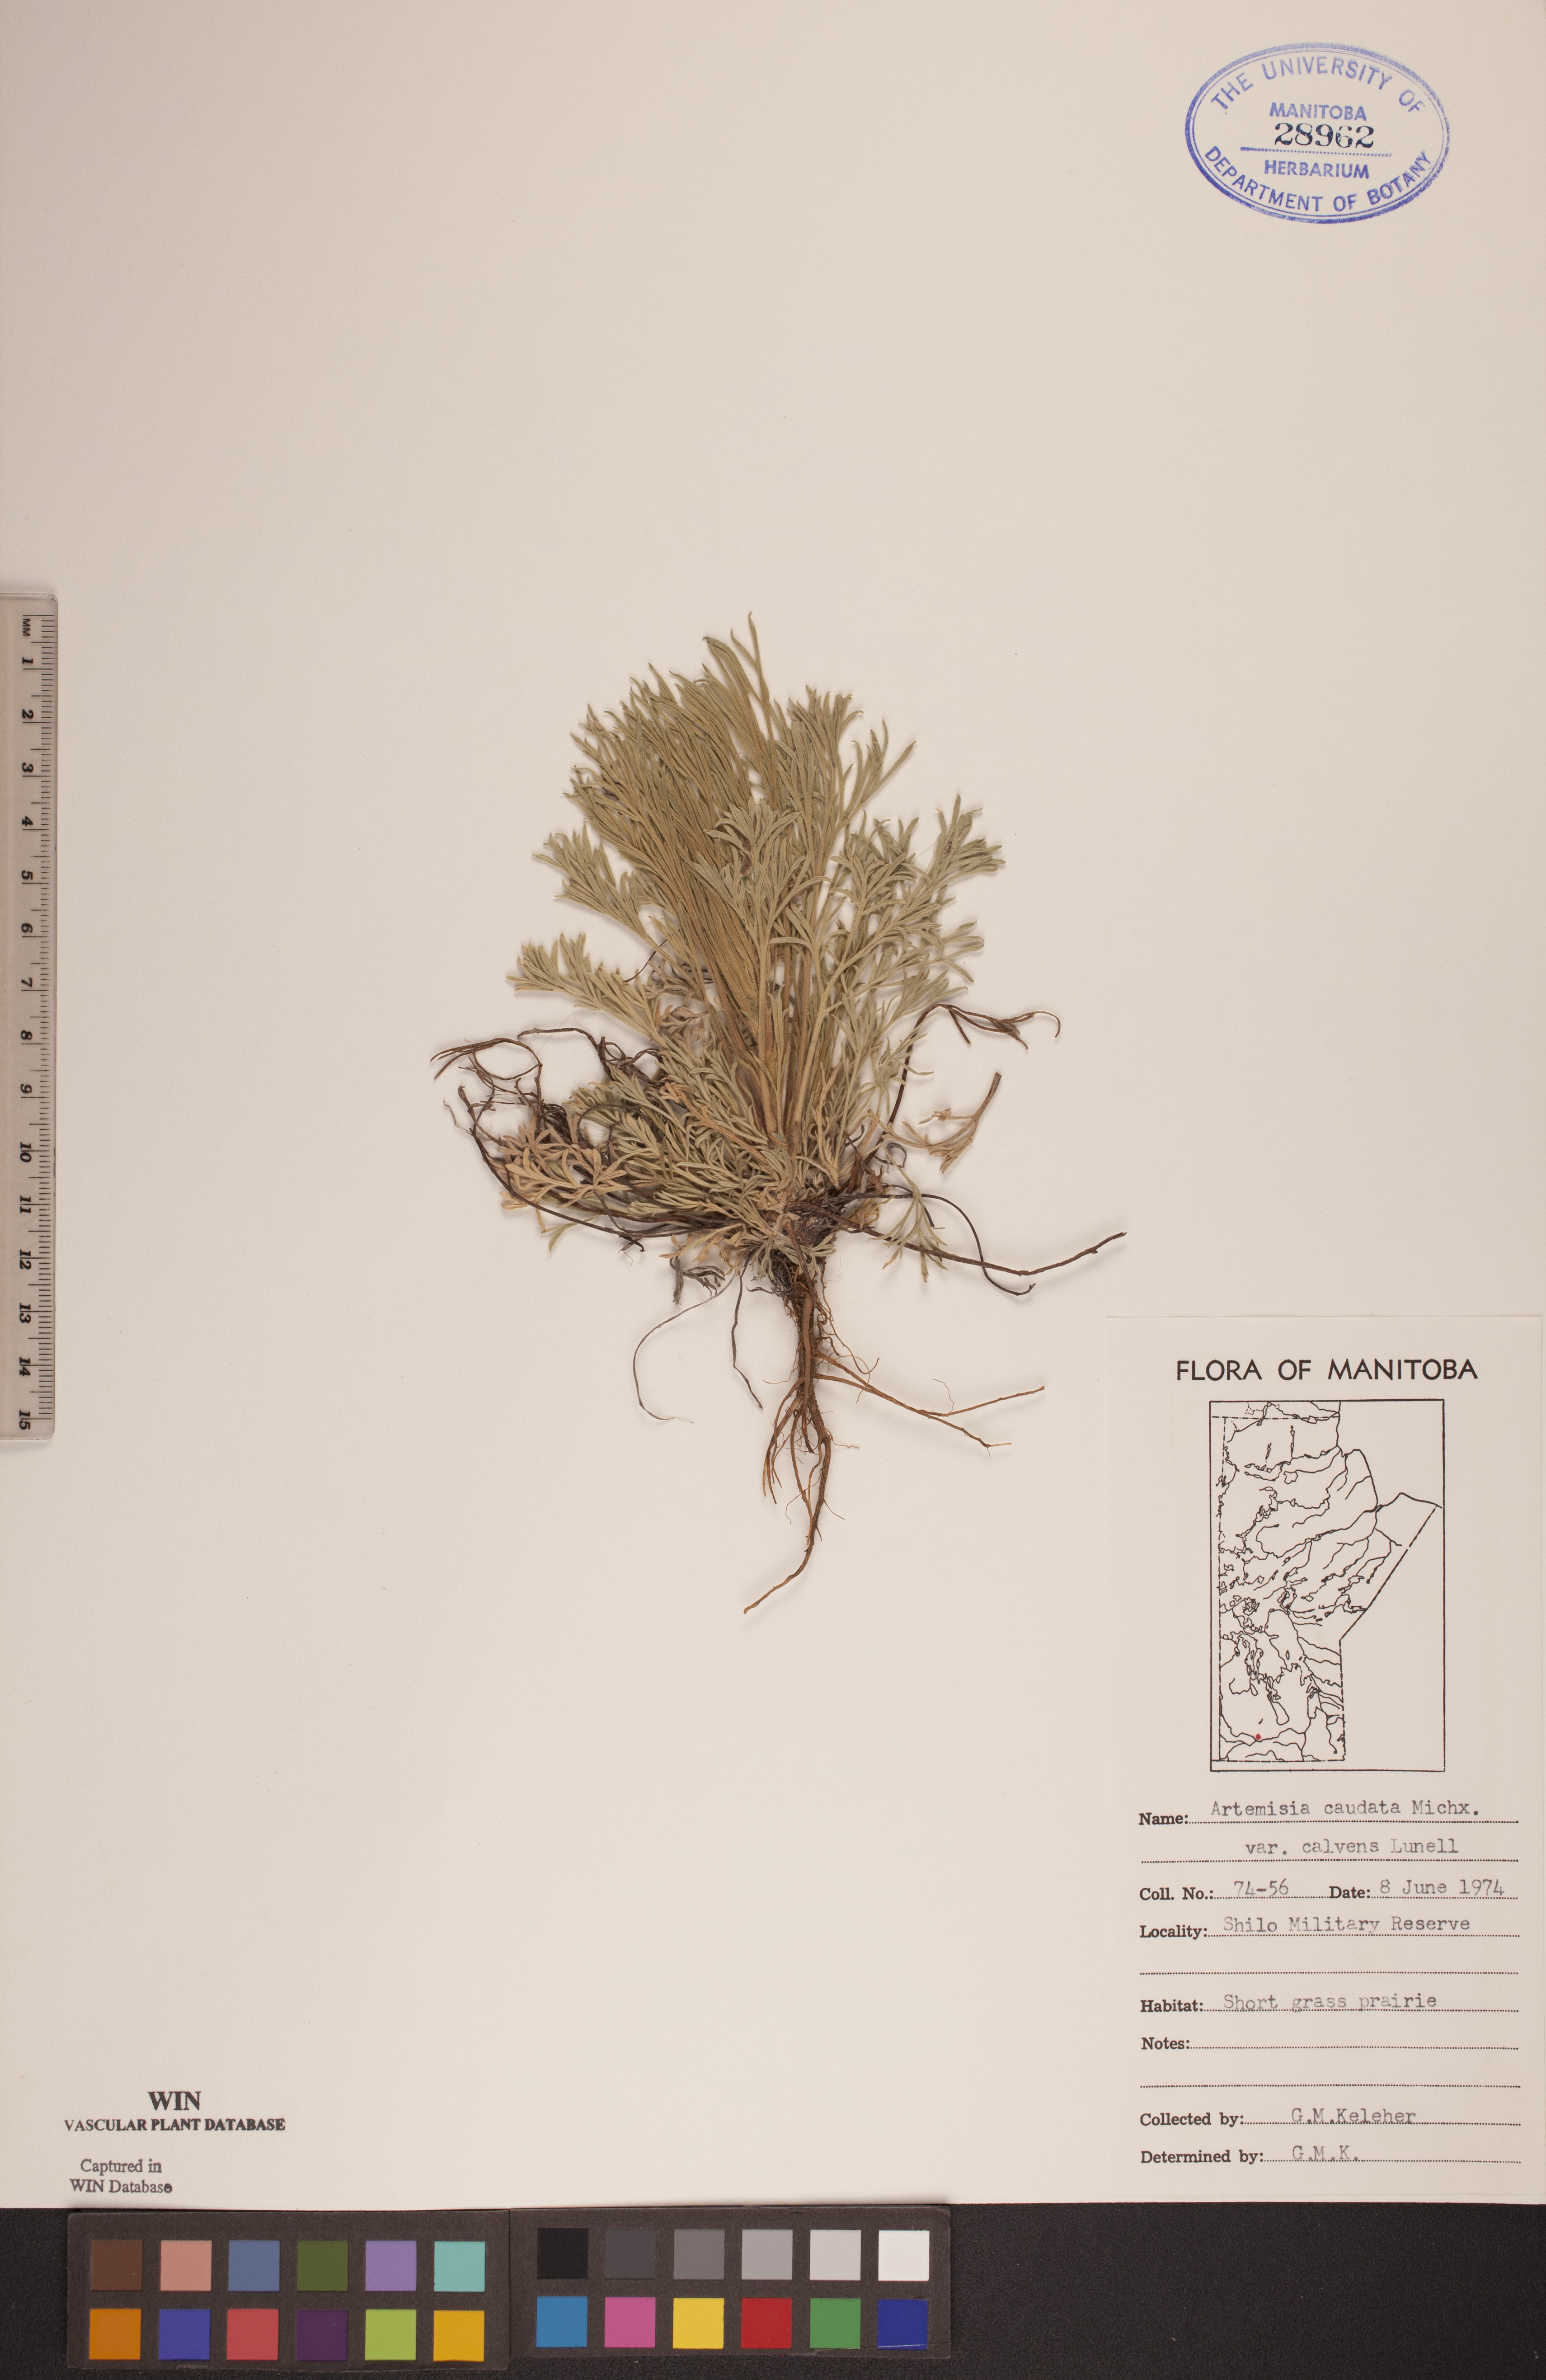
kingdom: Plantae
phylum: Tracheophyta
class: Magnoliopsida
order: Asterales
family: Asteraceae
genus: Artemisia
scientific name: Artemisia campestris
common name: Field wormwood
